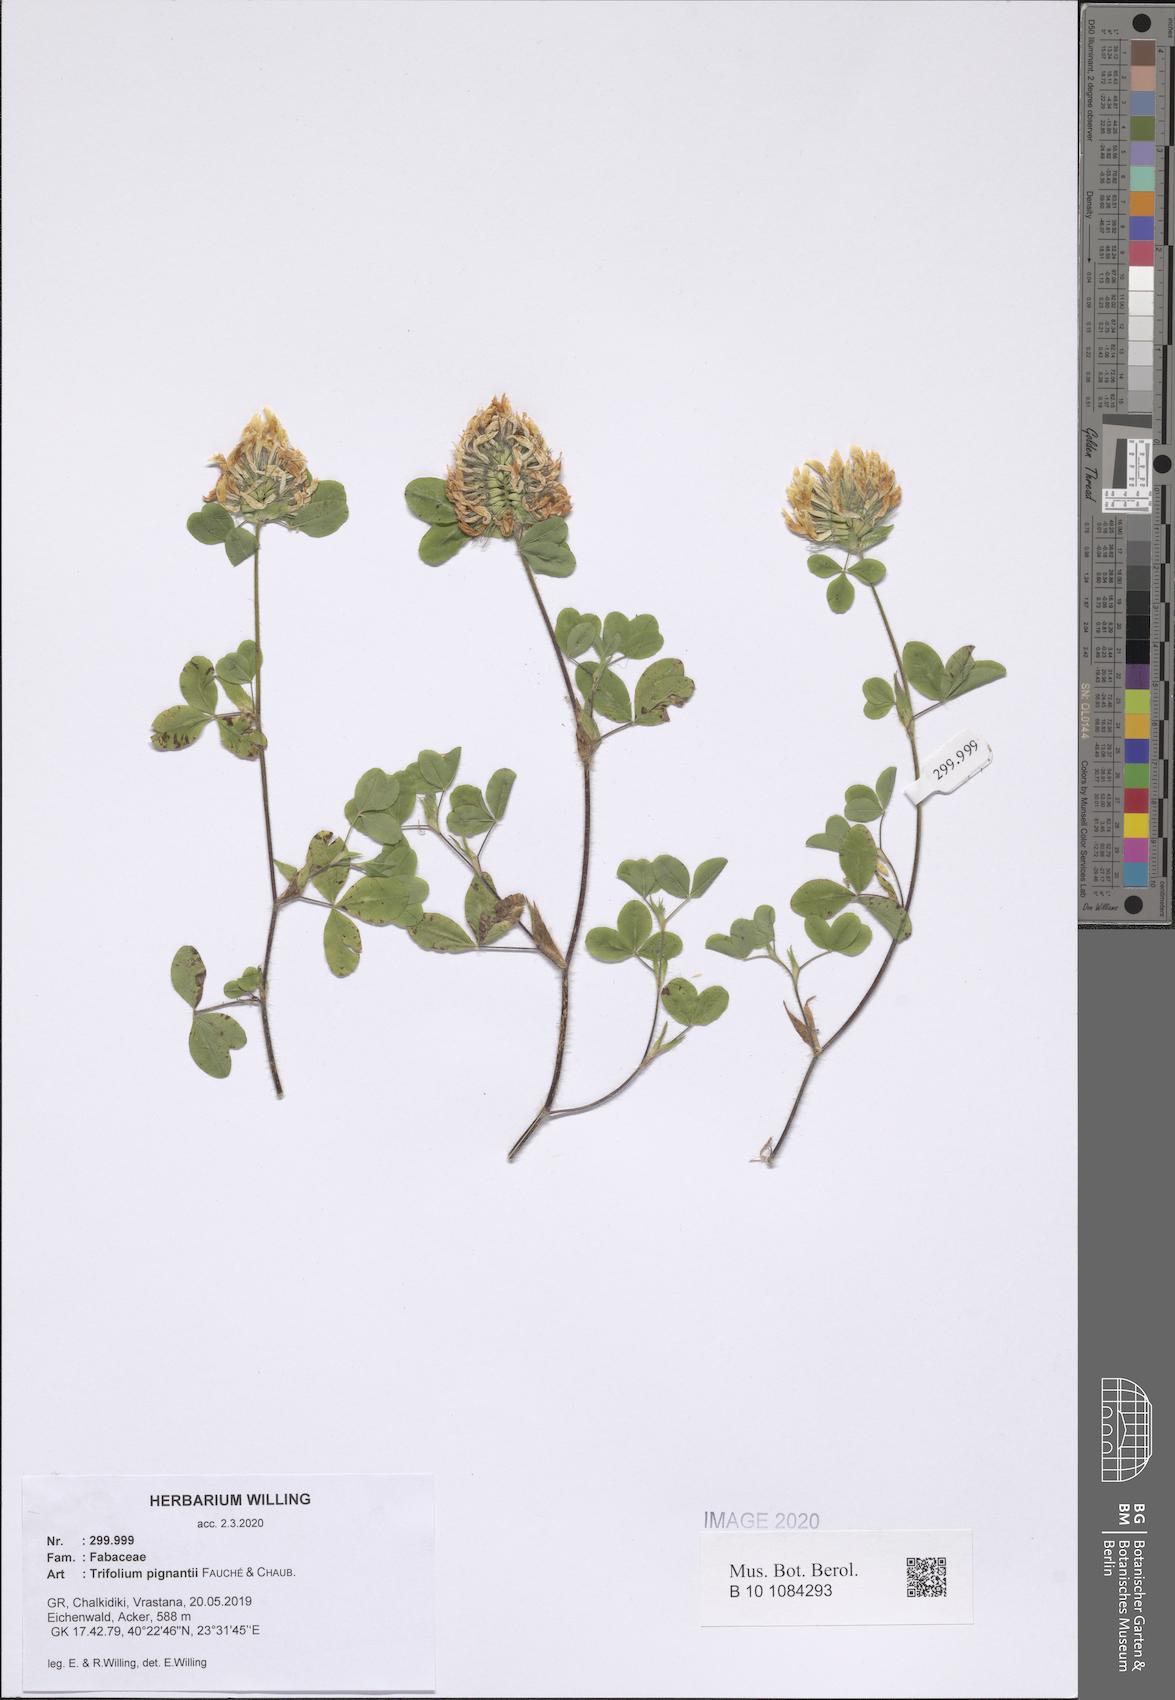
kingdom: Plantae
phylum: Tracheophyta
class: Magnoliopsida
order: Fabales
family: Fabaceae
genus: Trifolium
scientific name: Trifolium pignantii
